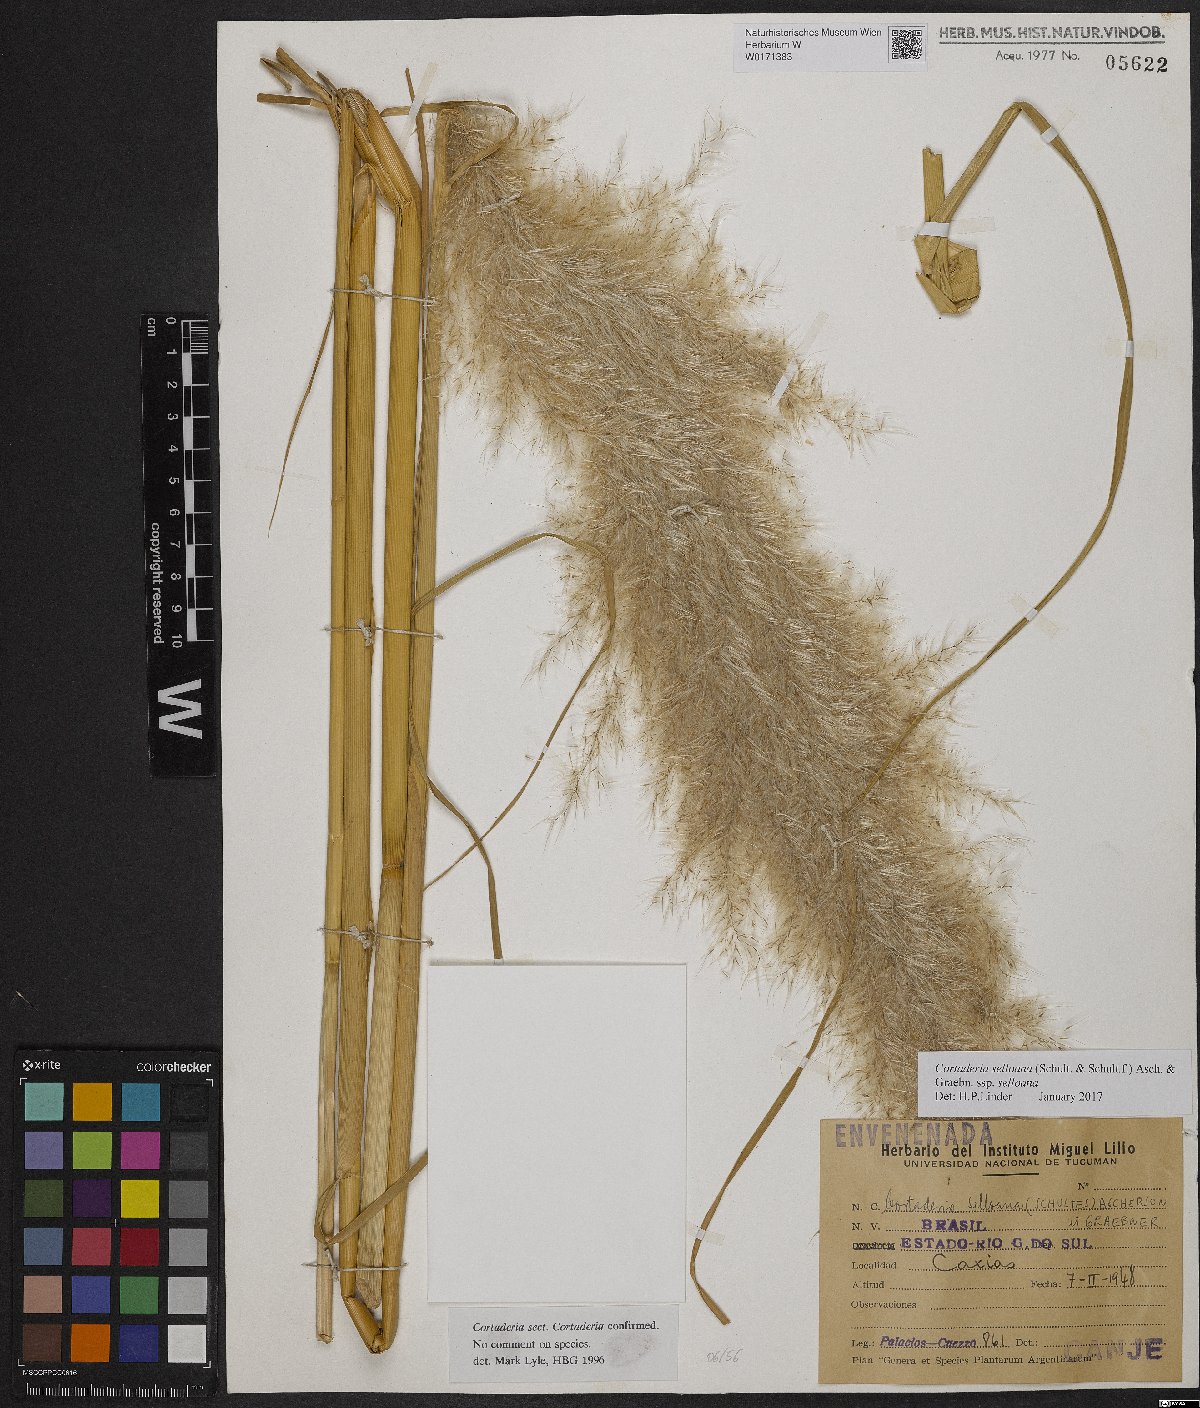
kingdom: Plantae
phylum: Tracheophyta
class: Liliopsida
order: Poales
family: Poaceae
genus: Cortaderia
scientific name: Cortaderia selloana
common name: Uruguayan pampas grass
